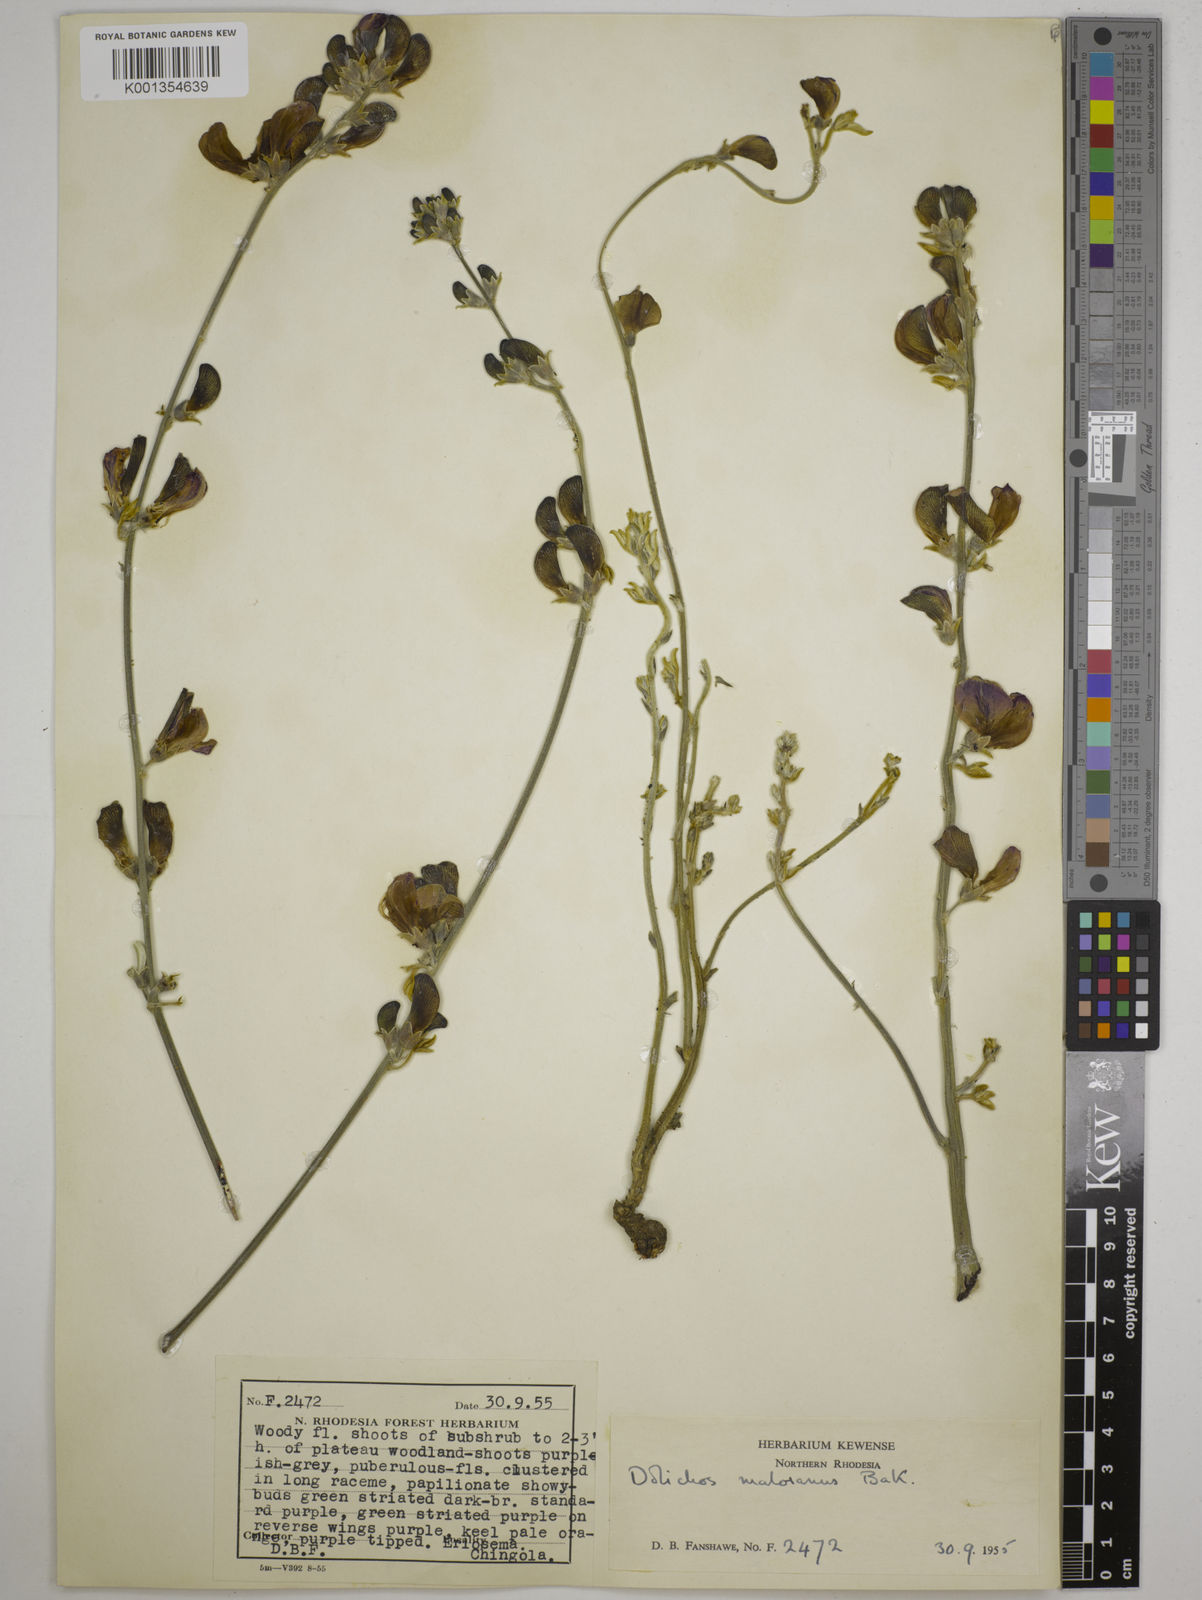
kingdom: Plantae
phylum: Tracheophyta
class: Magnoliopsida
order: Fabales
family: Fabaceae
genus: Dolichos
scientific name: Dolichos kilimandscharicus
